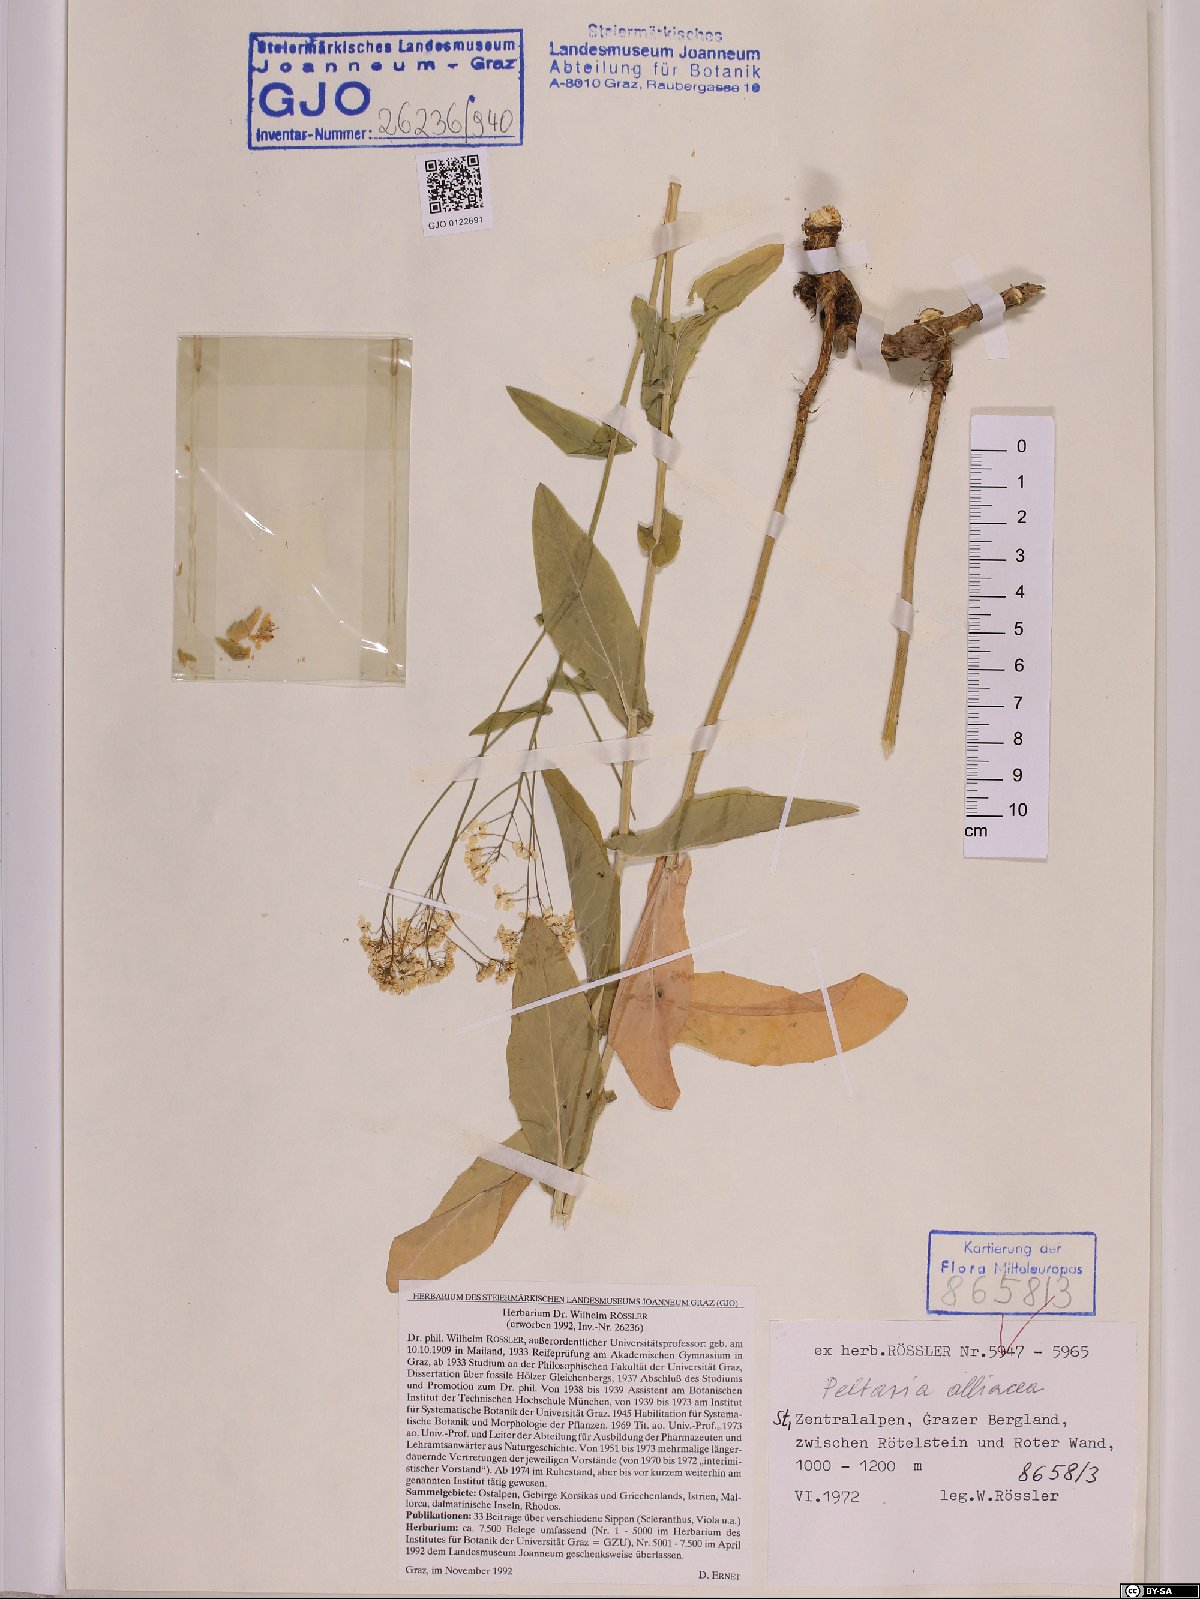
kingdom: Plantae
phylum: Tracheophyta
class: Magnoliopsida
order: Brassicales
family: Brassicaceae
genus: Peltaria
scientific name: Peltaria alliacea
